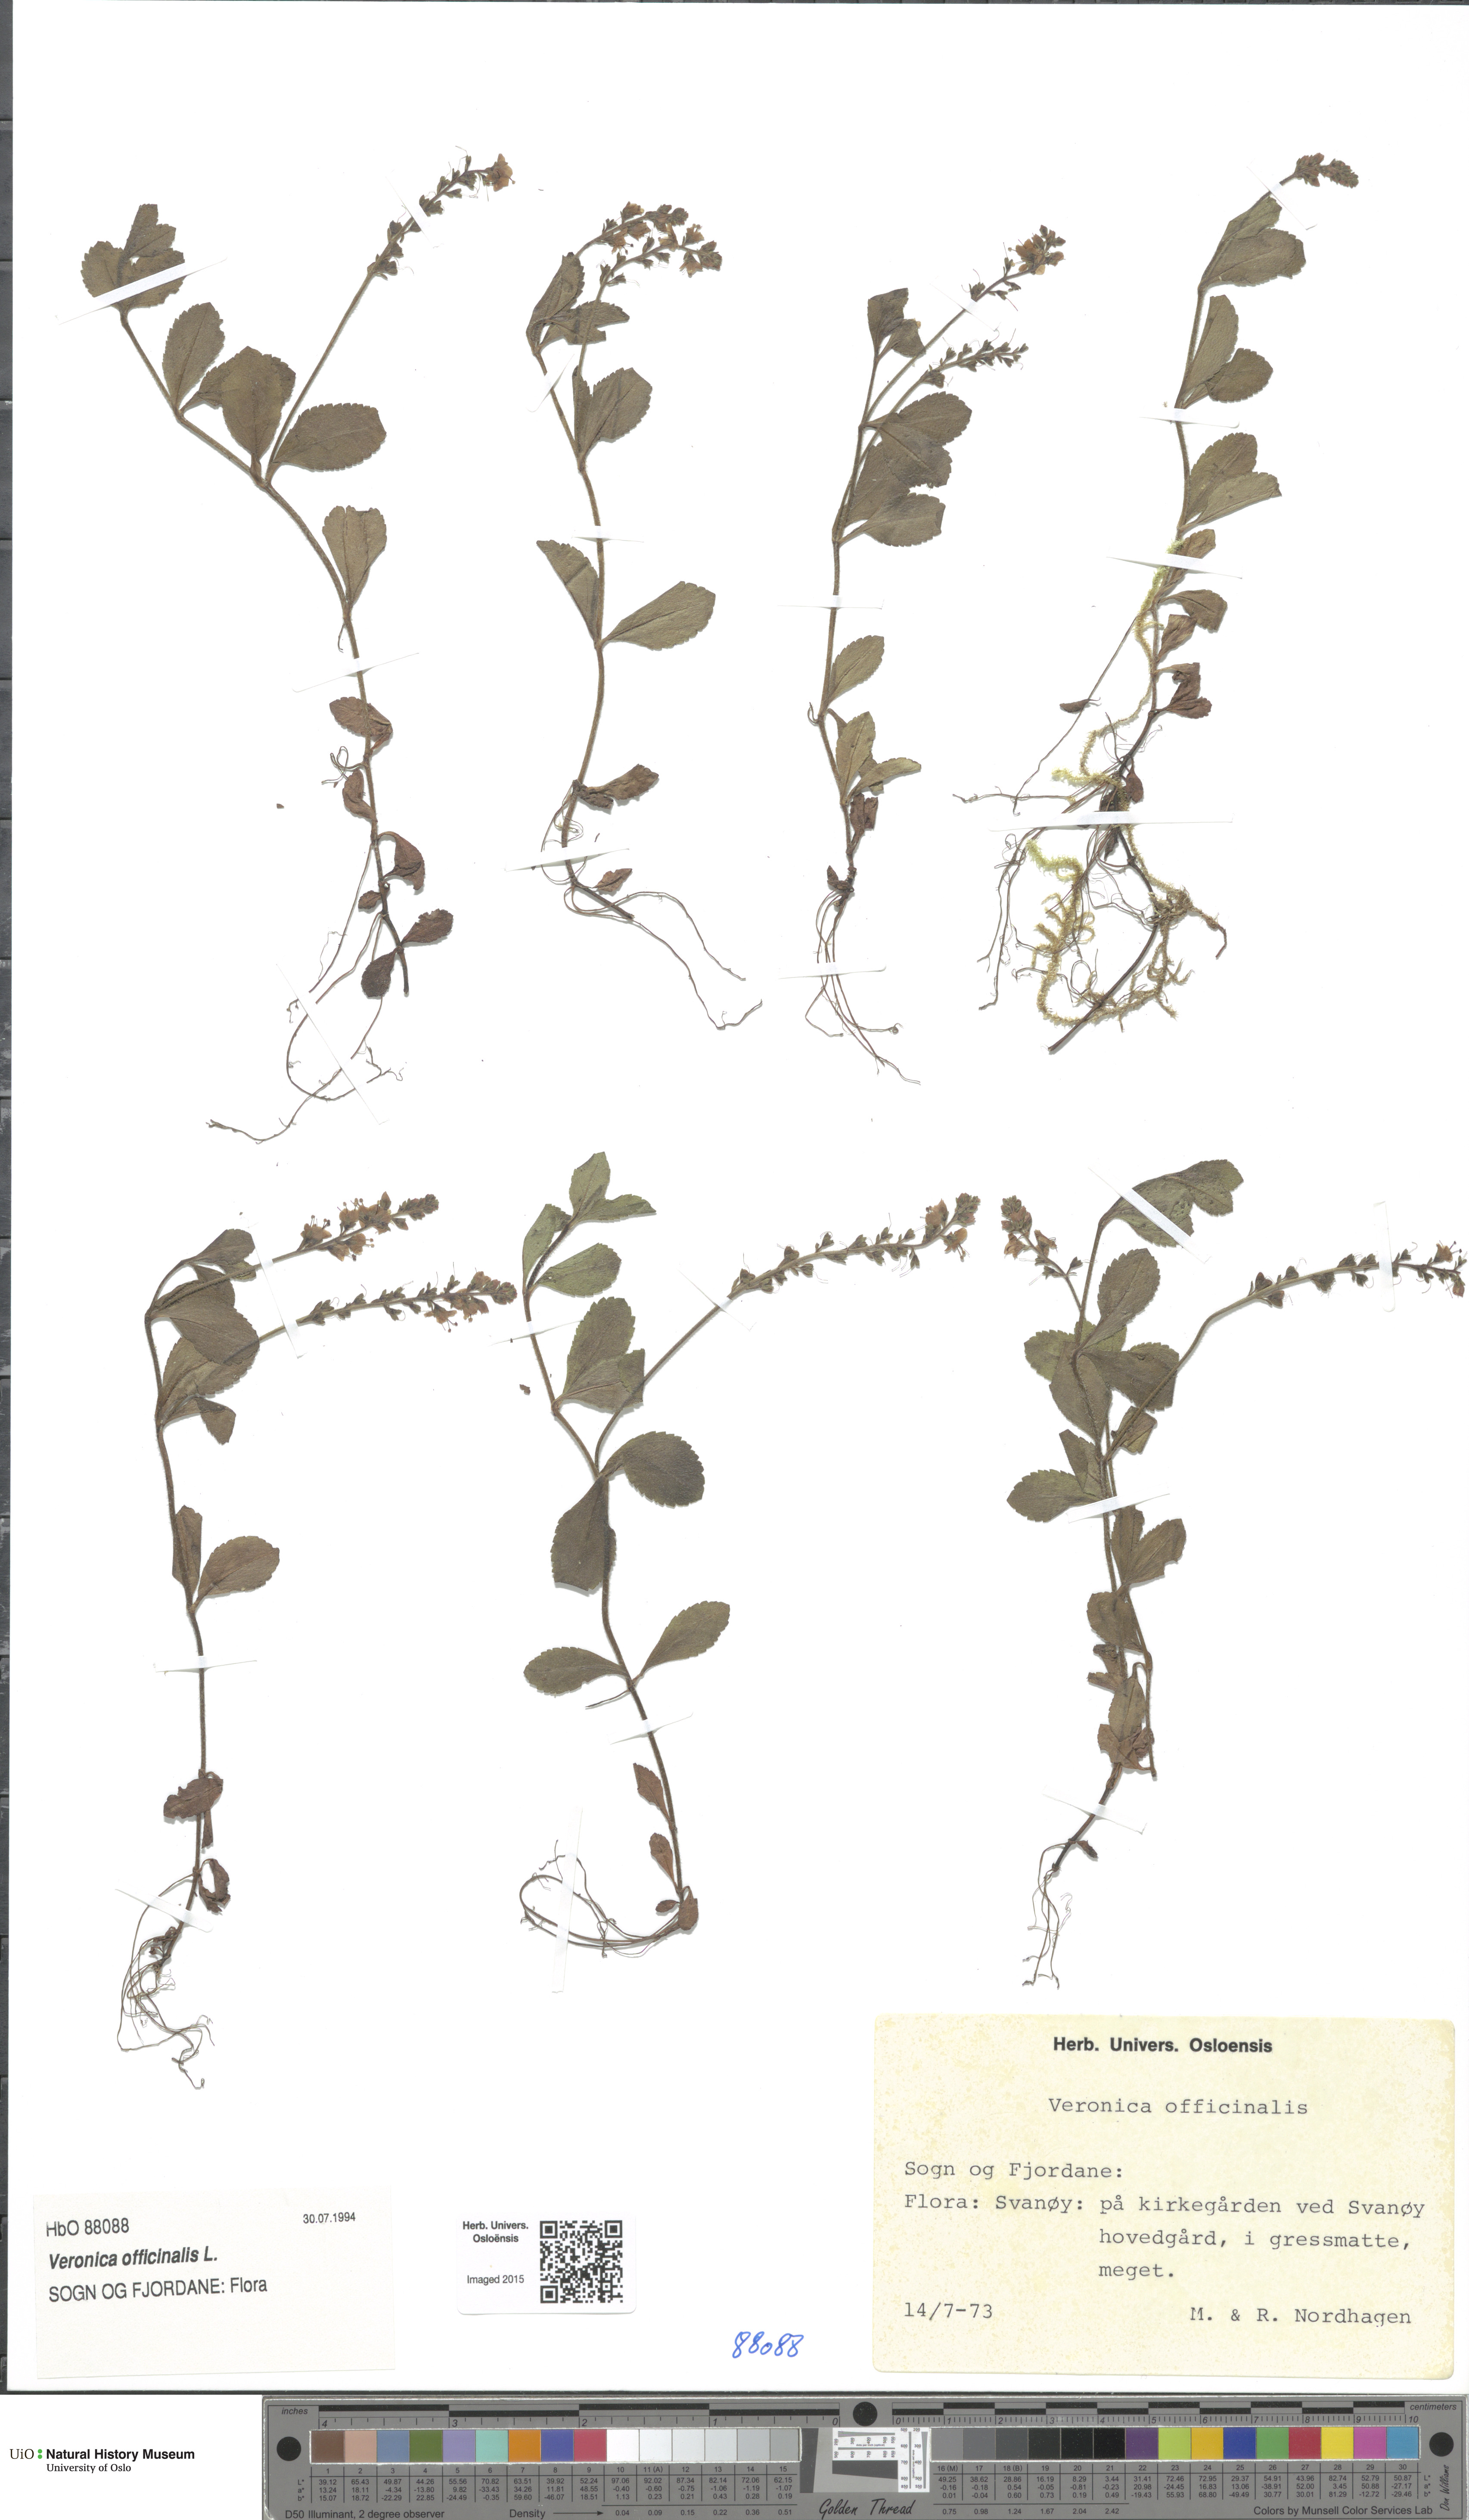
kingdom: Plantae
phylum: Tracheophyta
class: Magnoliopsida
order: Lamiales
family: Plantaginaceae
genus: Veronica
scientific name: Veronica officinalis
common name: Common speedwell
